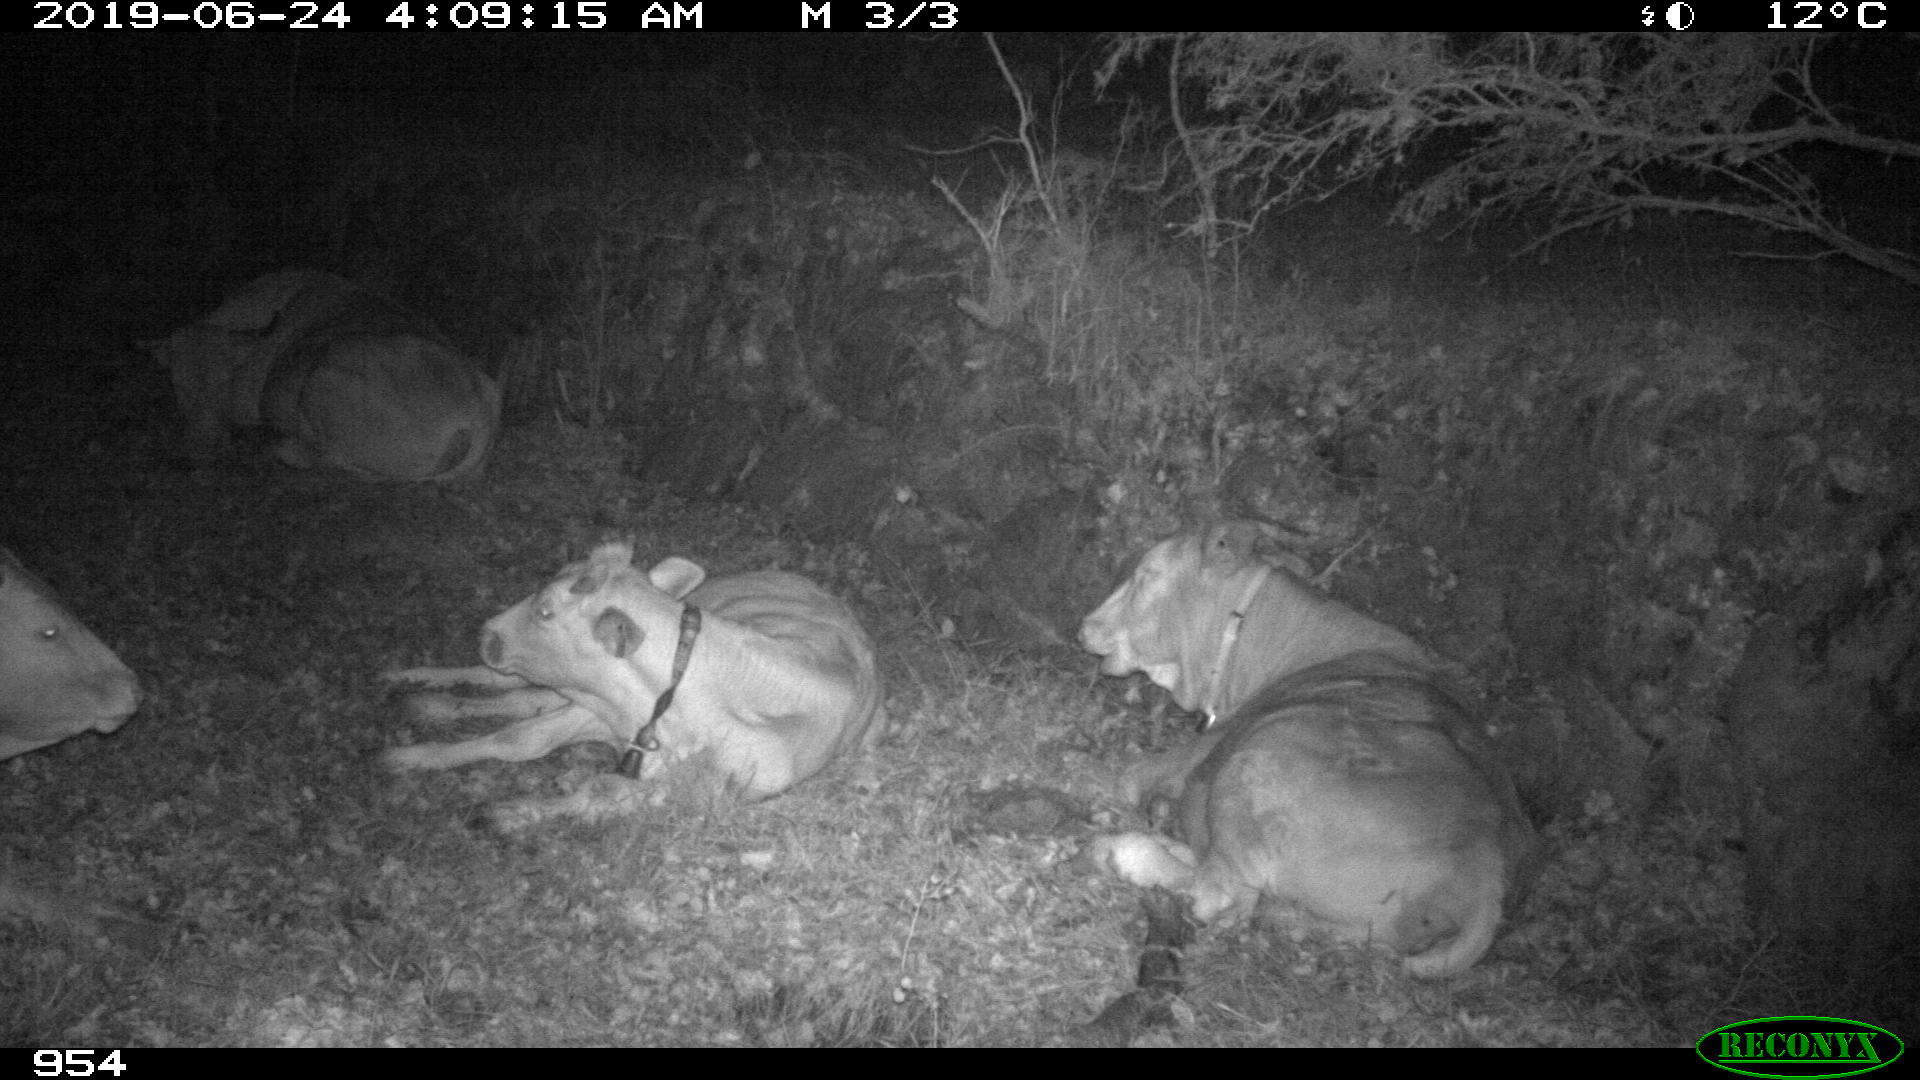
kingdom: Animalia
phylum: Chordata
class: Mammalia
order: Artiodactyla
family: Bovidae
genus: Bos
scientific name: Bos taurus
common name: Domesticated cattle
